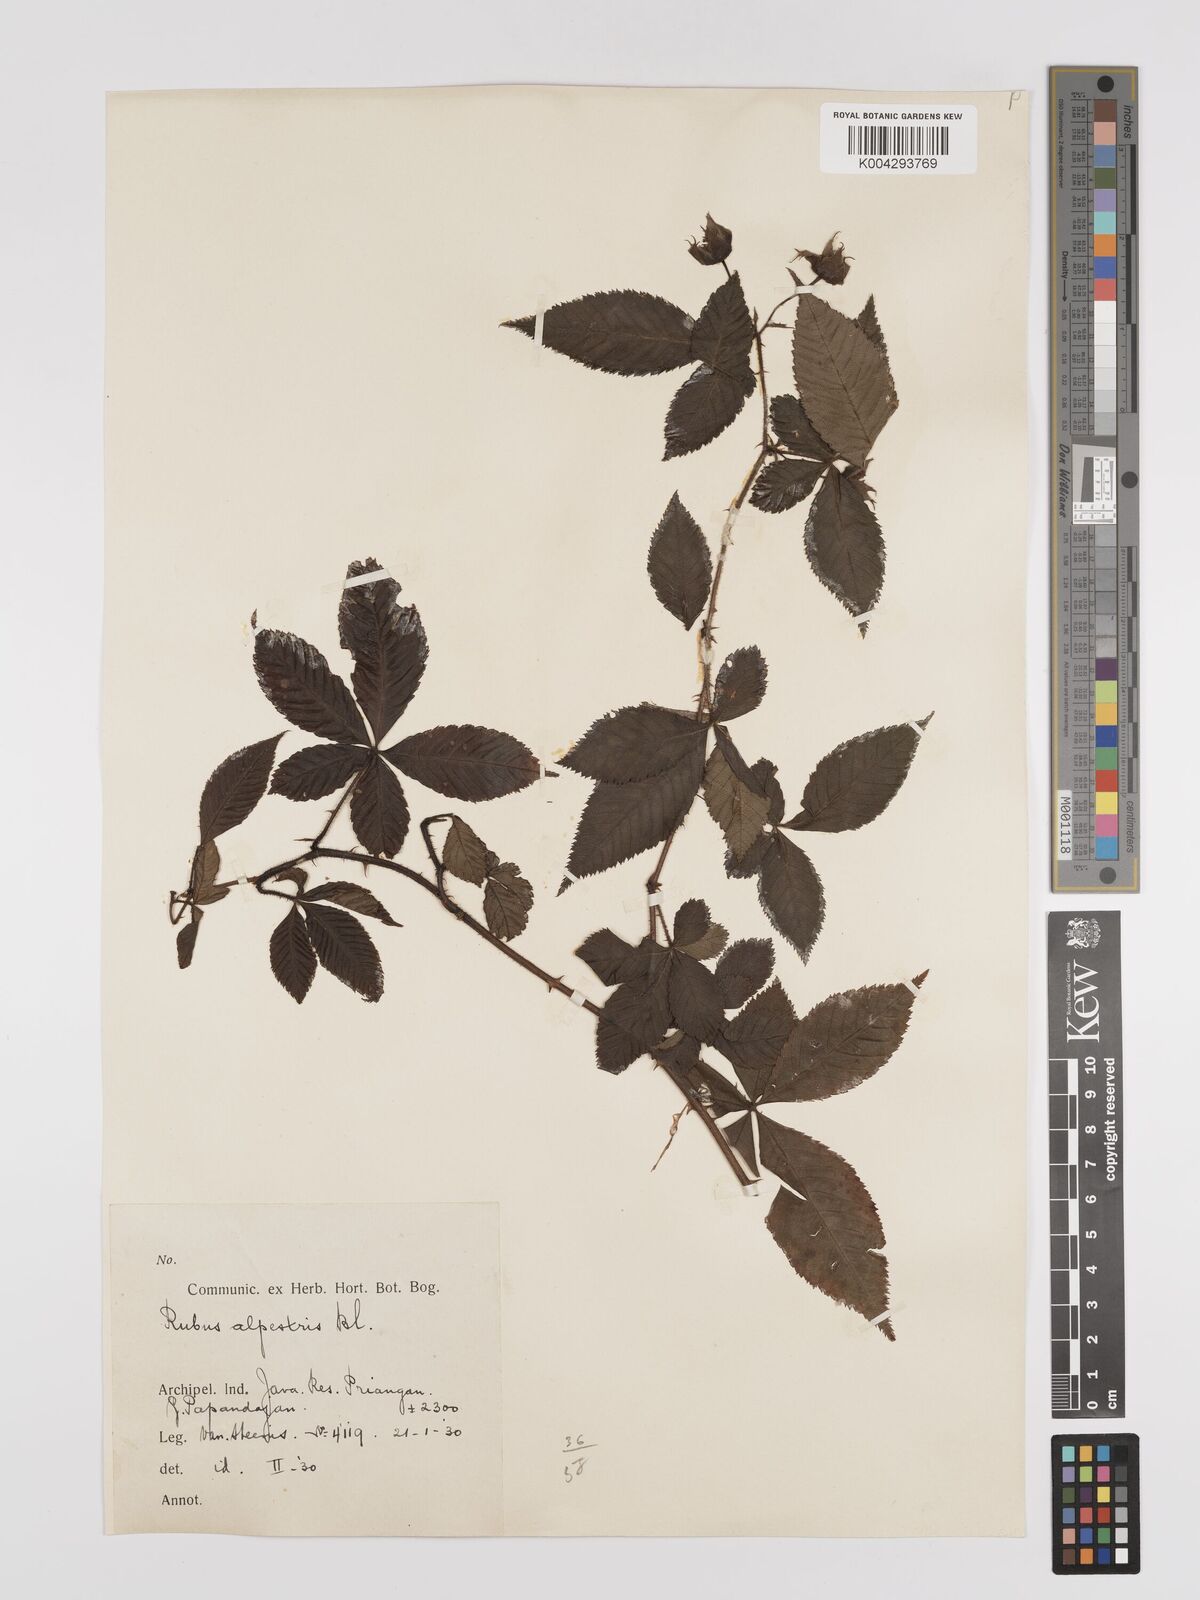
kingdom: Plantae
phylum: Tracheophyta
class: Magnoliopsida
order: Rosales
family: Rosaceae
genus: Rubus
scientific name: Rubus alpestris
